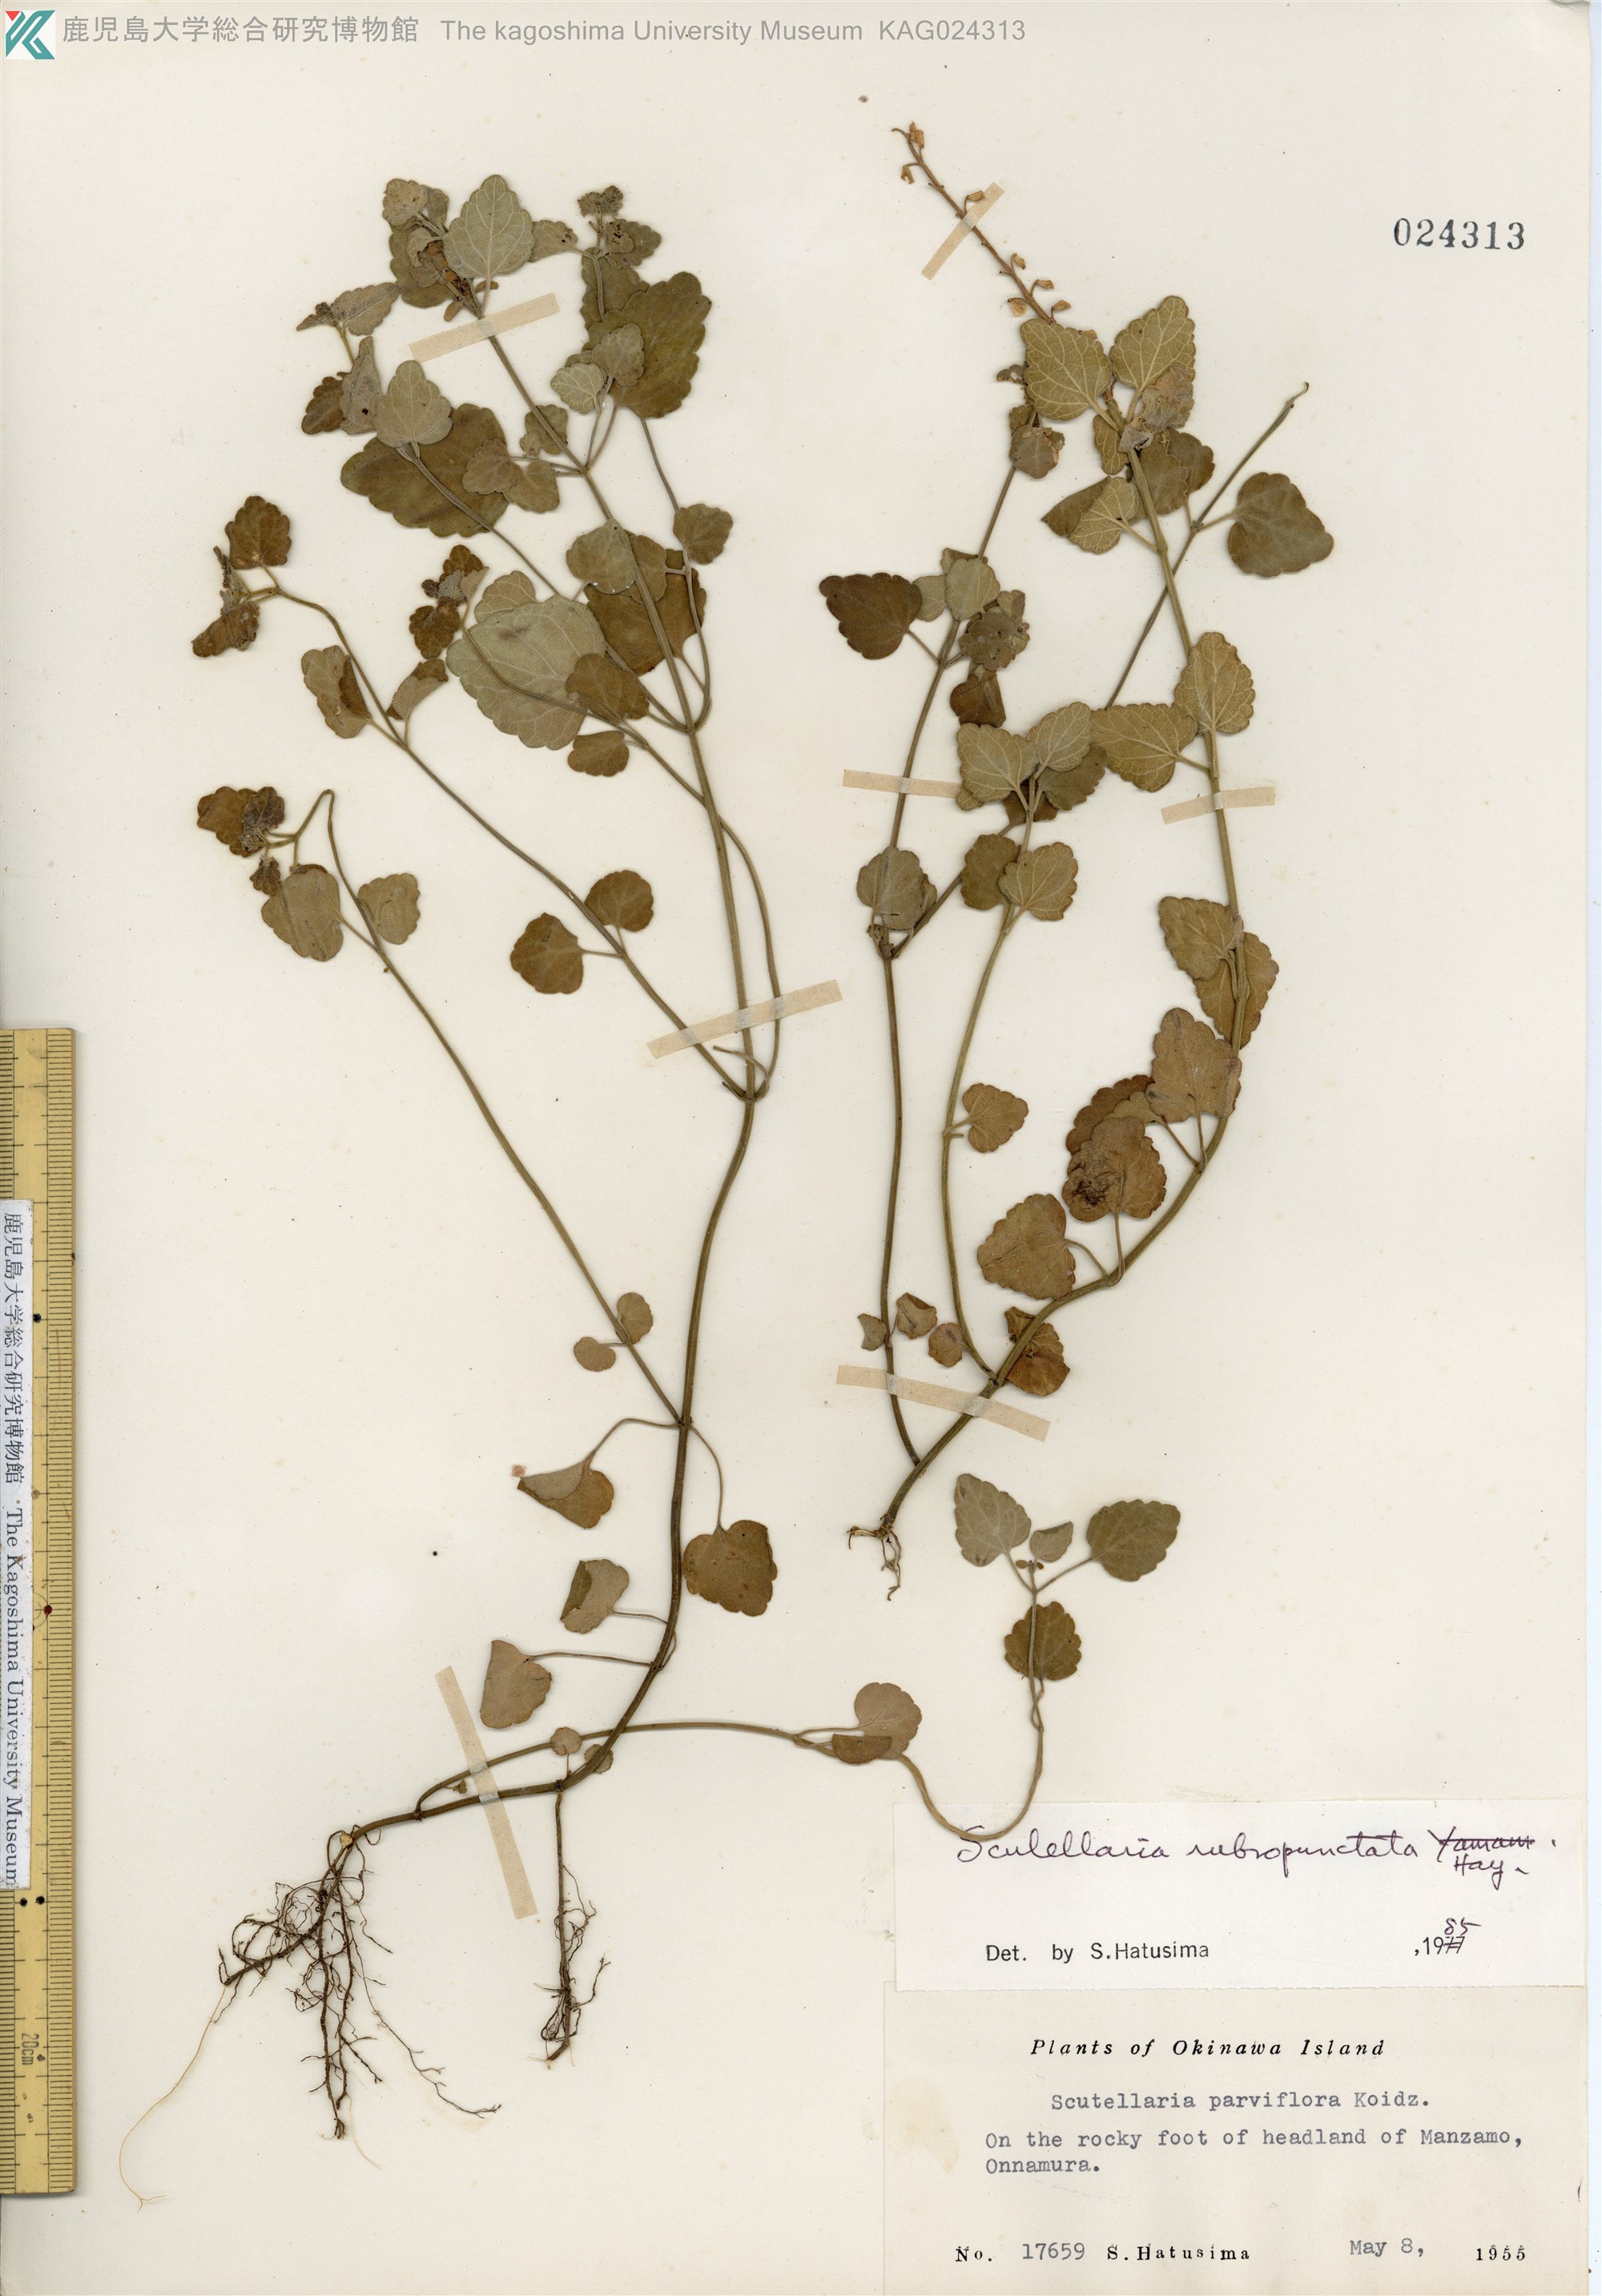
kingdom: Plantae
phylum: Tracheophyta
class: Magnoliopsida
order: Lamiales
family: Lamiaceae
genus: Scutellaria
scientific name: Scutellaria rubropunctata
